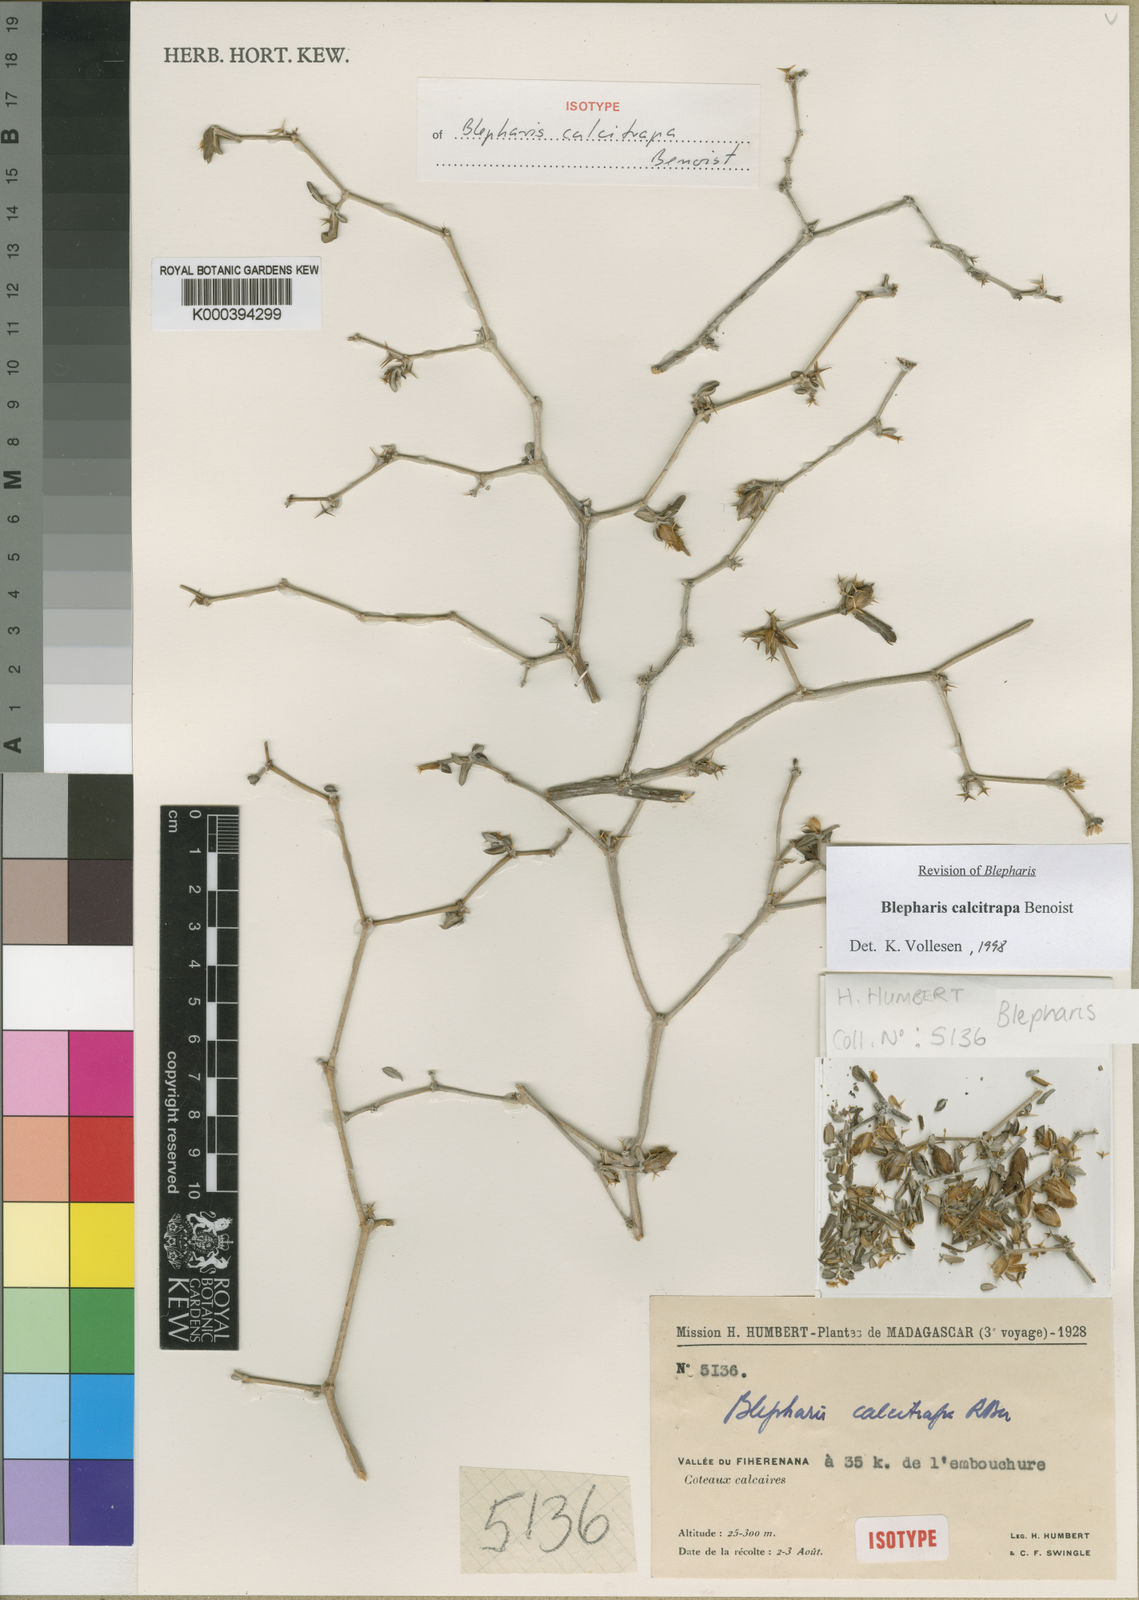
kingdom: Plantae
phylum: Tracheophyta
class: Magnoliopsida
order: Lamiales
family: Acanthaceae
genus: Blepharis
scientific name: Blepharis calcitrapa
